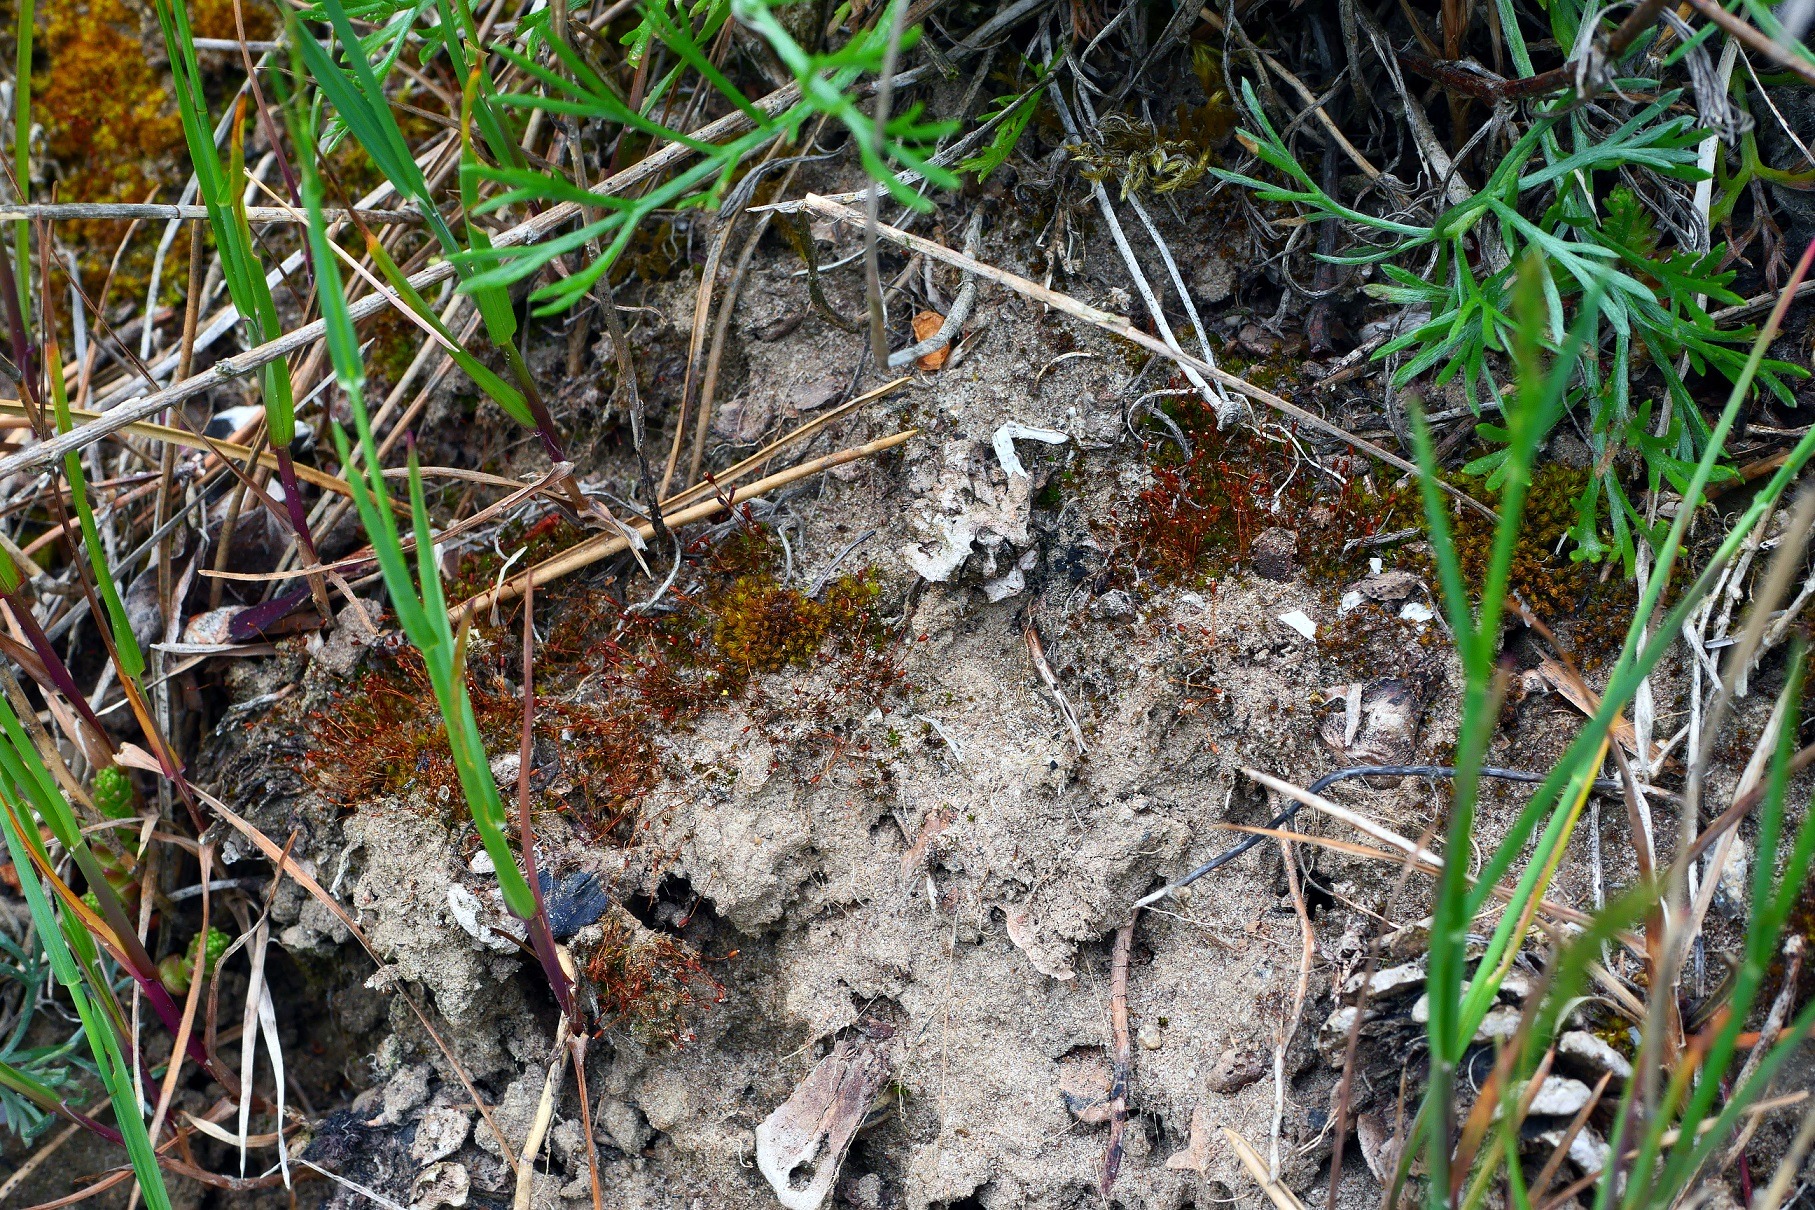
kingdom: Plantae
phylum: Bryophyta
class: Bryopsida
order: Pottiales
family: Pottiaceae
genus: Tortula
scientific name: Tortula lindbergii
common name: Lancet-bægermos
